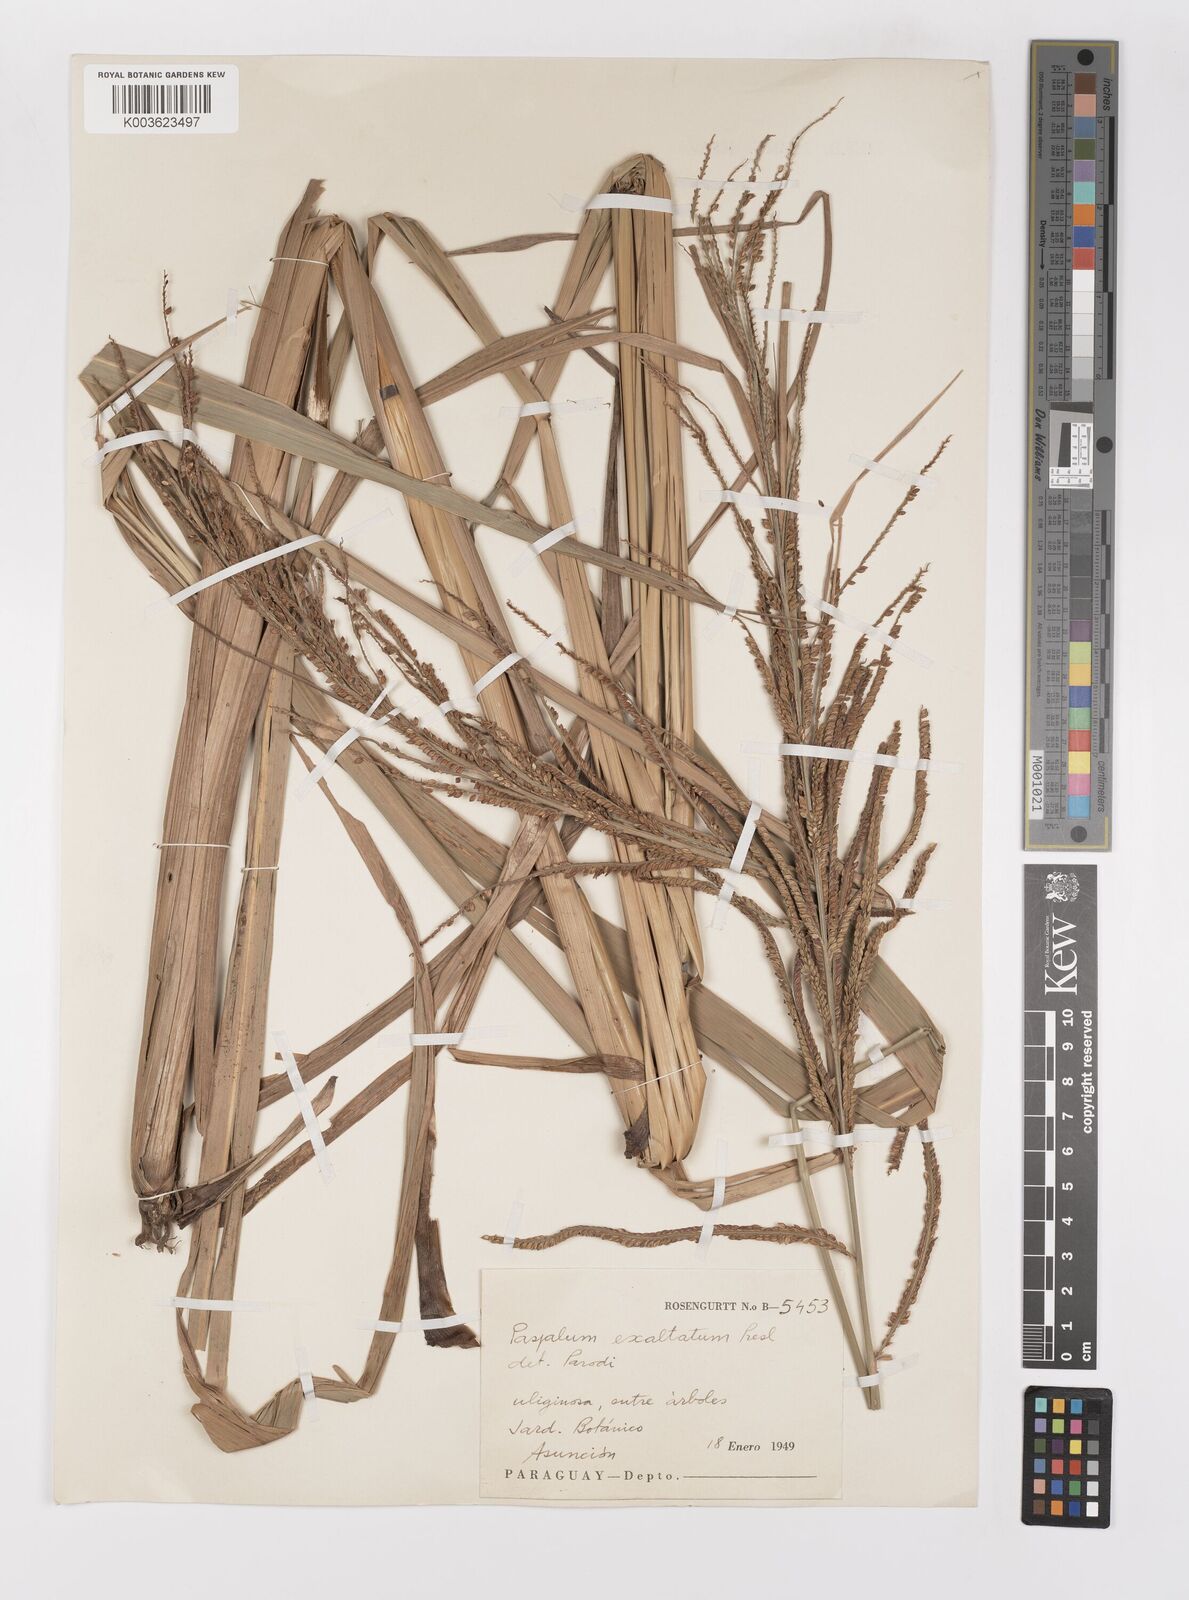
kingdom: Plantae
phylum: Tracheophyta
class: Liliopsida
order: Poales
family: Poaceae
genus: Paspalum
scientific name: Paspalum exaltatum
